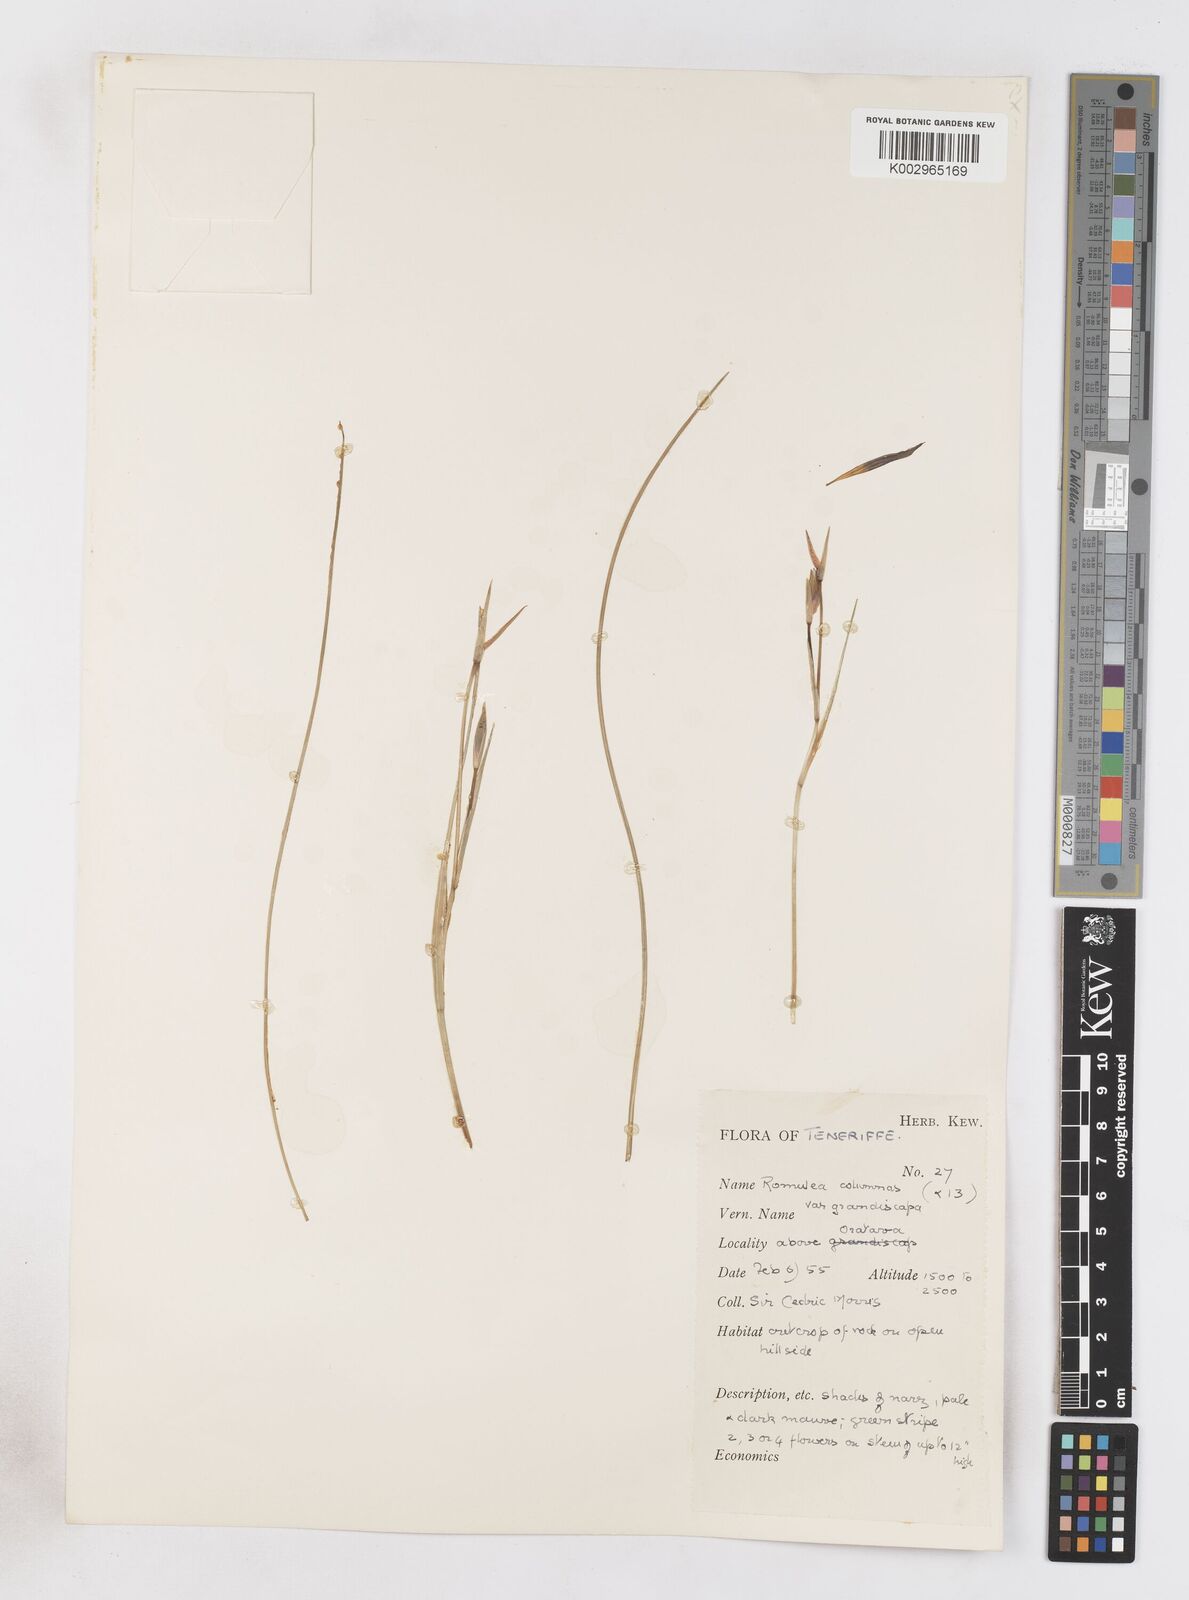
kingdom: Plantae
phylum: Tracheophyta
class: Liliopsida
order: Asparagales
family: Iridaceae
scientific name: Iridaceae
